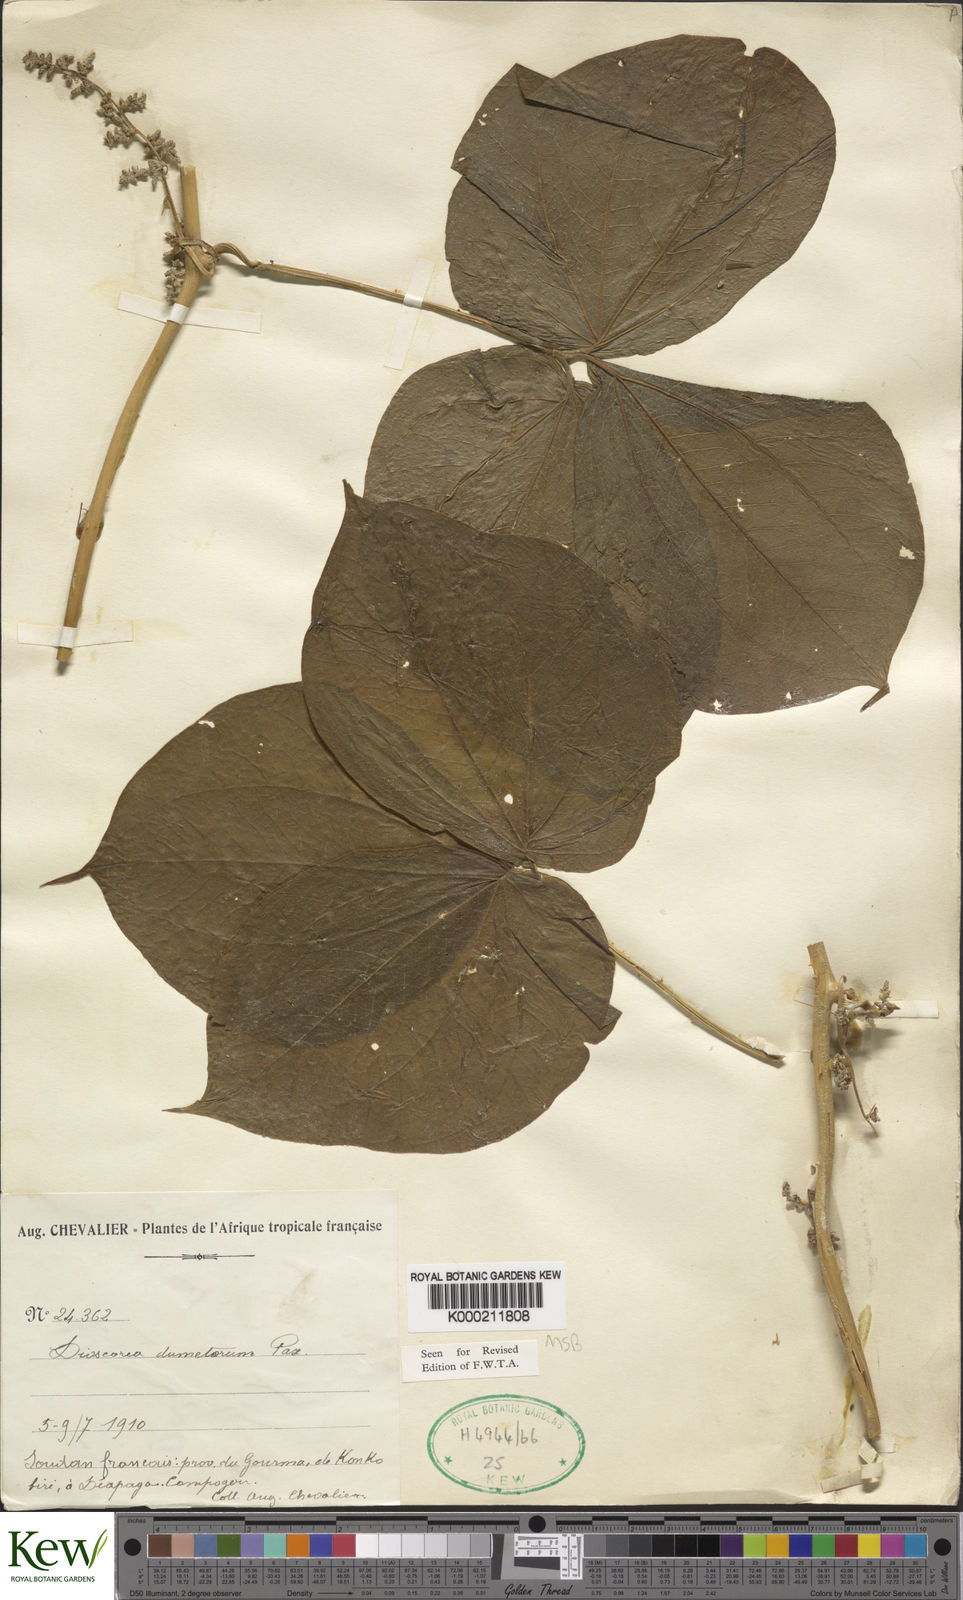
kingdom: Plantae
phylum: Tracheophyta
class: Liliopsida
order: Dioscoreales
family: Dioscoreaceae
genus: Dioscorea
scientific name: Dioscorea dumetorum
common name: African bitter yam
